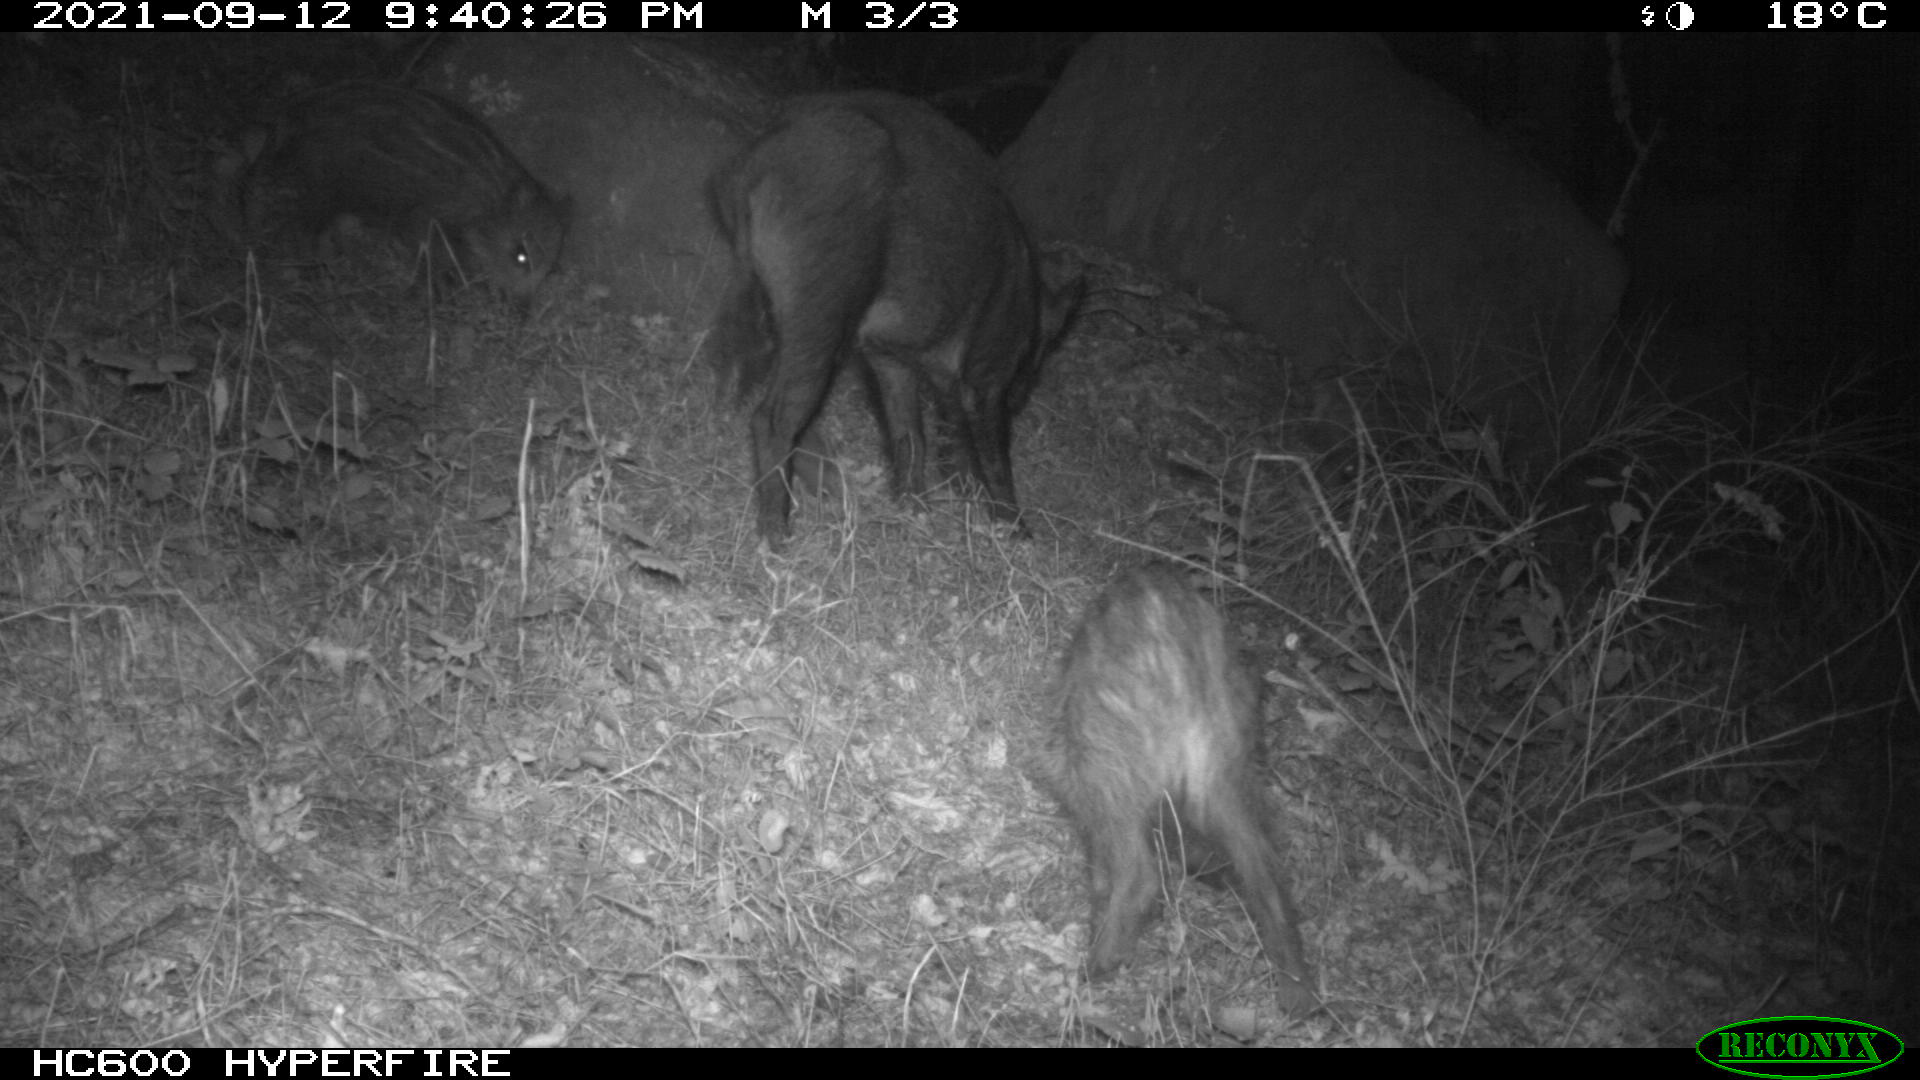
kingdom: Animalia
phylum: Chordata
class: Mammalia
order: Artiodactyla
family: Suidae
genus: Sus
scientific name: Sus scrofa
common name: Wild boar
